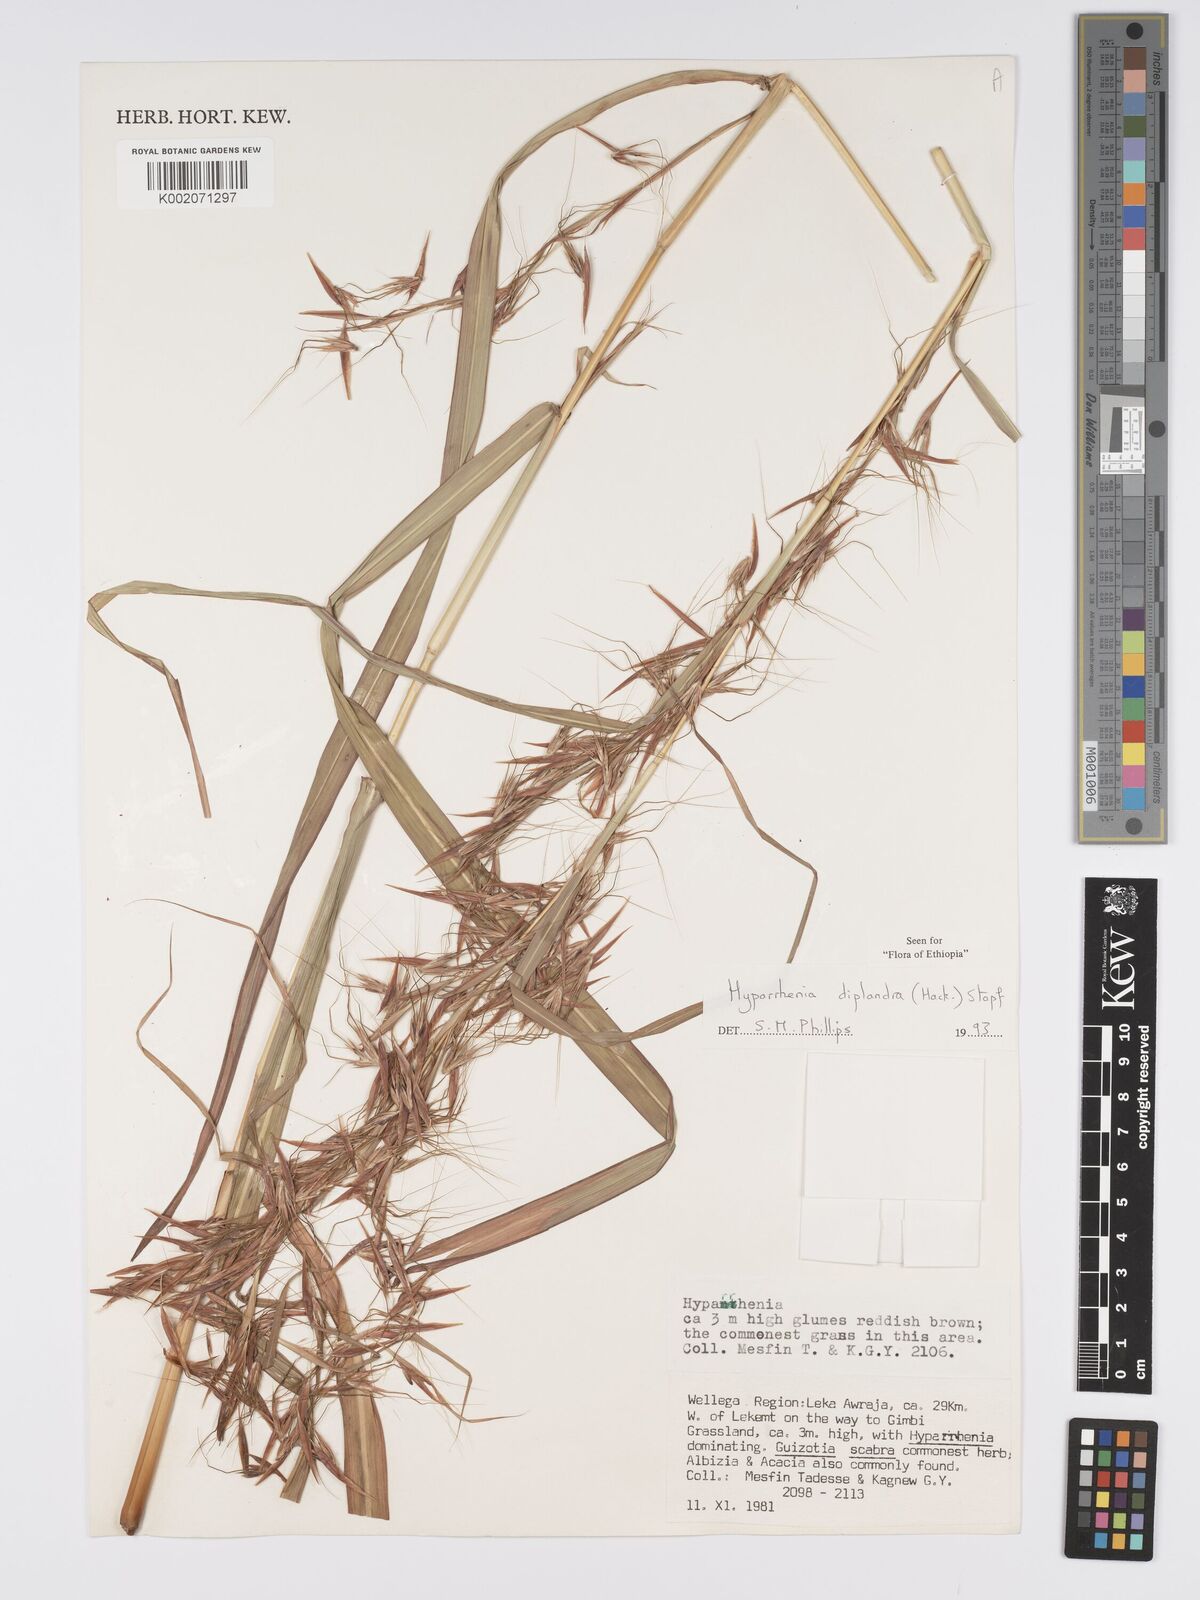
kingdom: Plantae
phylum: Tracheophyta
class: Liliopsida
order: Poales
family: Poaceae
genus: Hyparrhenia
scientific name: Hyparrhenia diplandra
